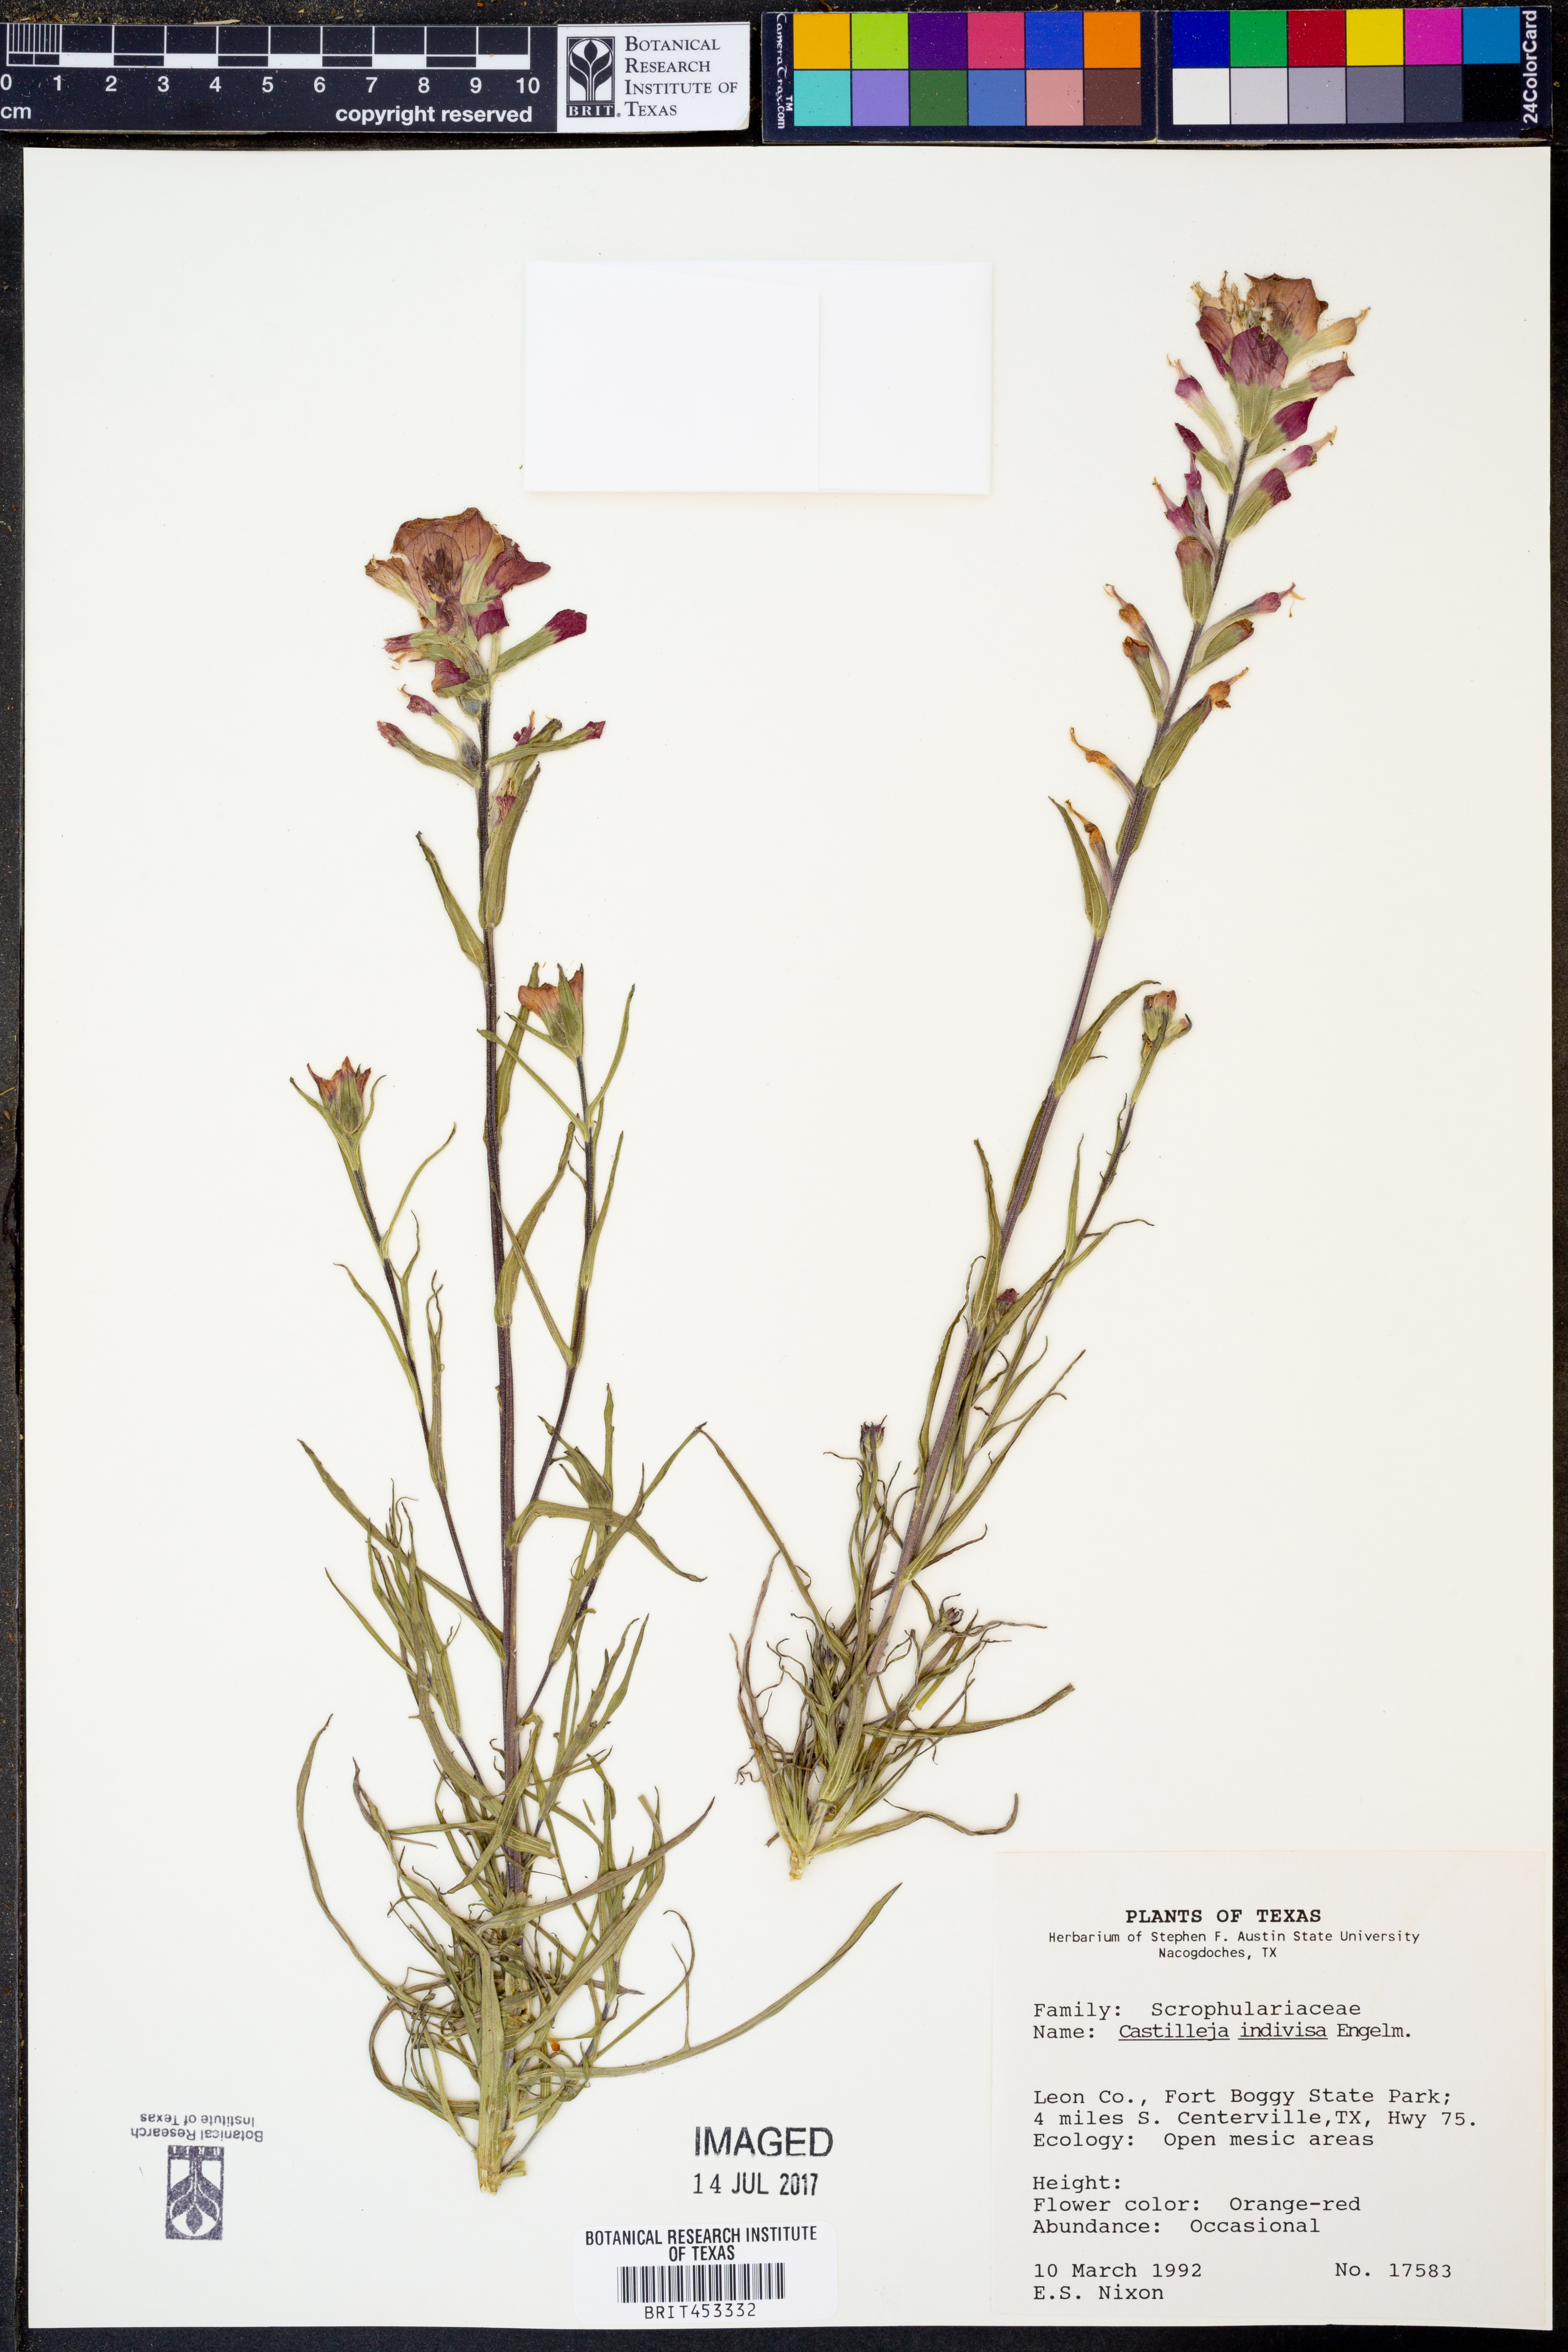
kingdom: Plantae
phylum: Tracheophyta
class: Magnoliopsida
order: Lamiales
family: Orobanchaceae
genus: Castilleja
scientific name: Castilleja indivisa
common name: Texas paintbrush
